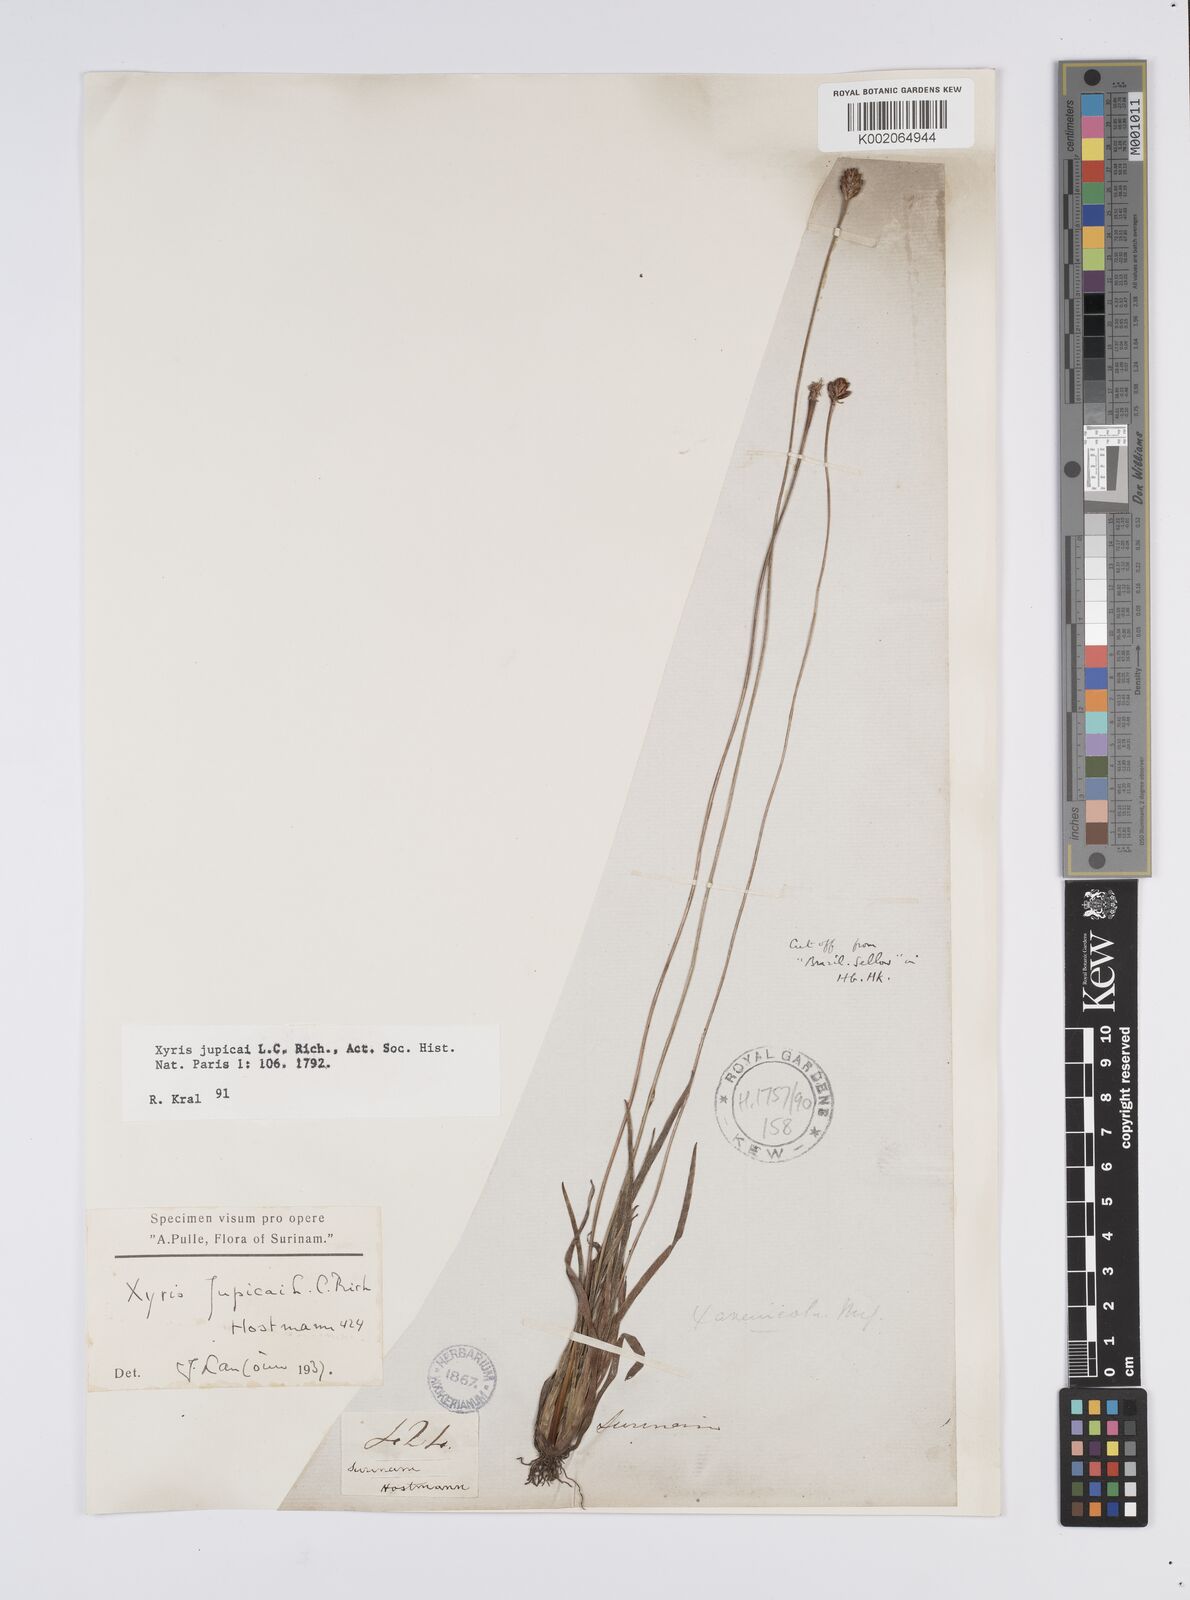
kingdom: Plantae
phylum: Tracheophyta
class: Liliopsida
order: Poales
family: Xyridaceae
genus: Xyris
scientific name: Xyris jupicai
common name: Richard's yelloweyed grass
